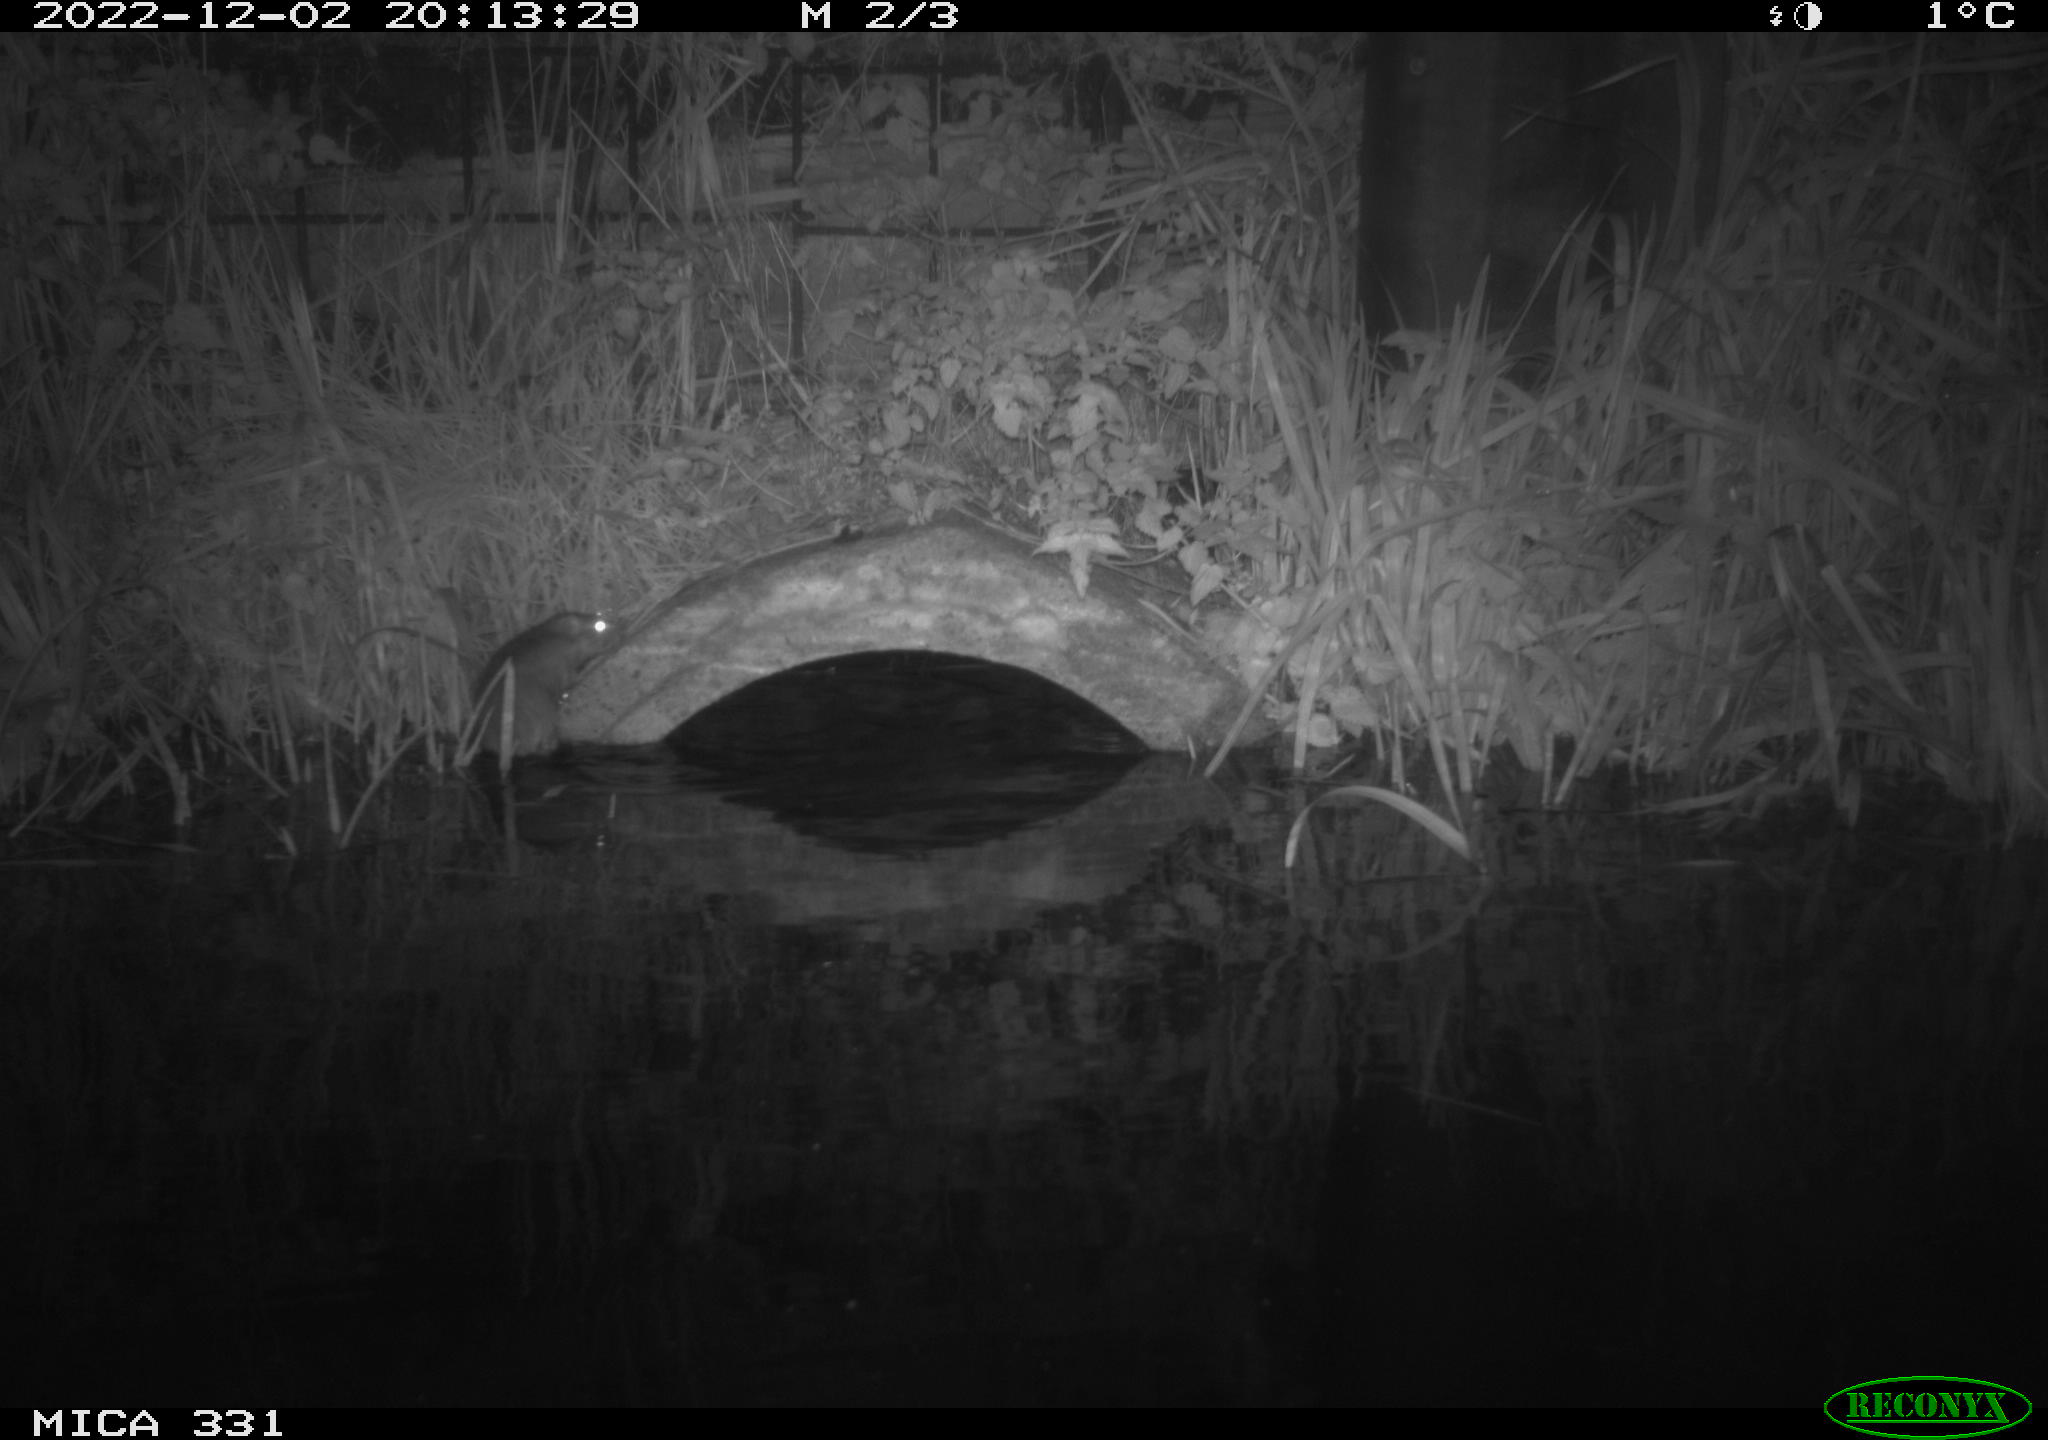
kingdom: Animalia
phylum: Chordata
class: Mammalia
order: Rodentia
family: Muridae
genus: Rattus
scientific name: Rattus norvegicus
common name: Brown rat
